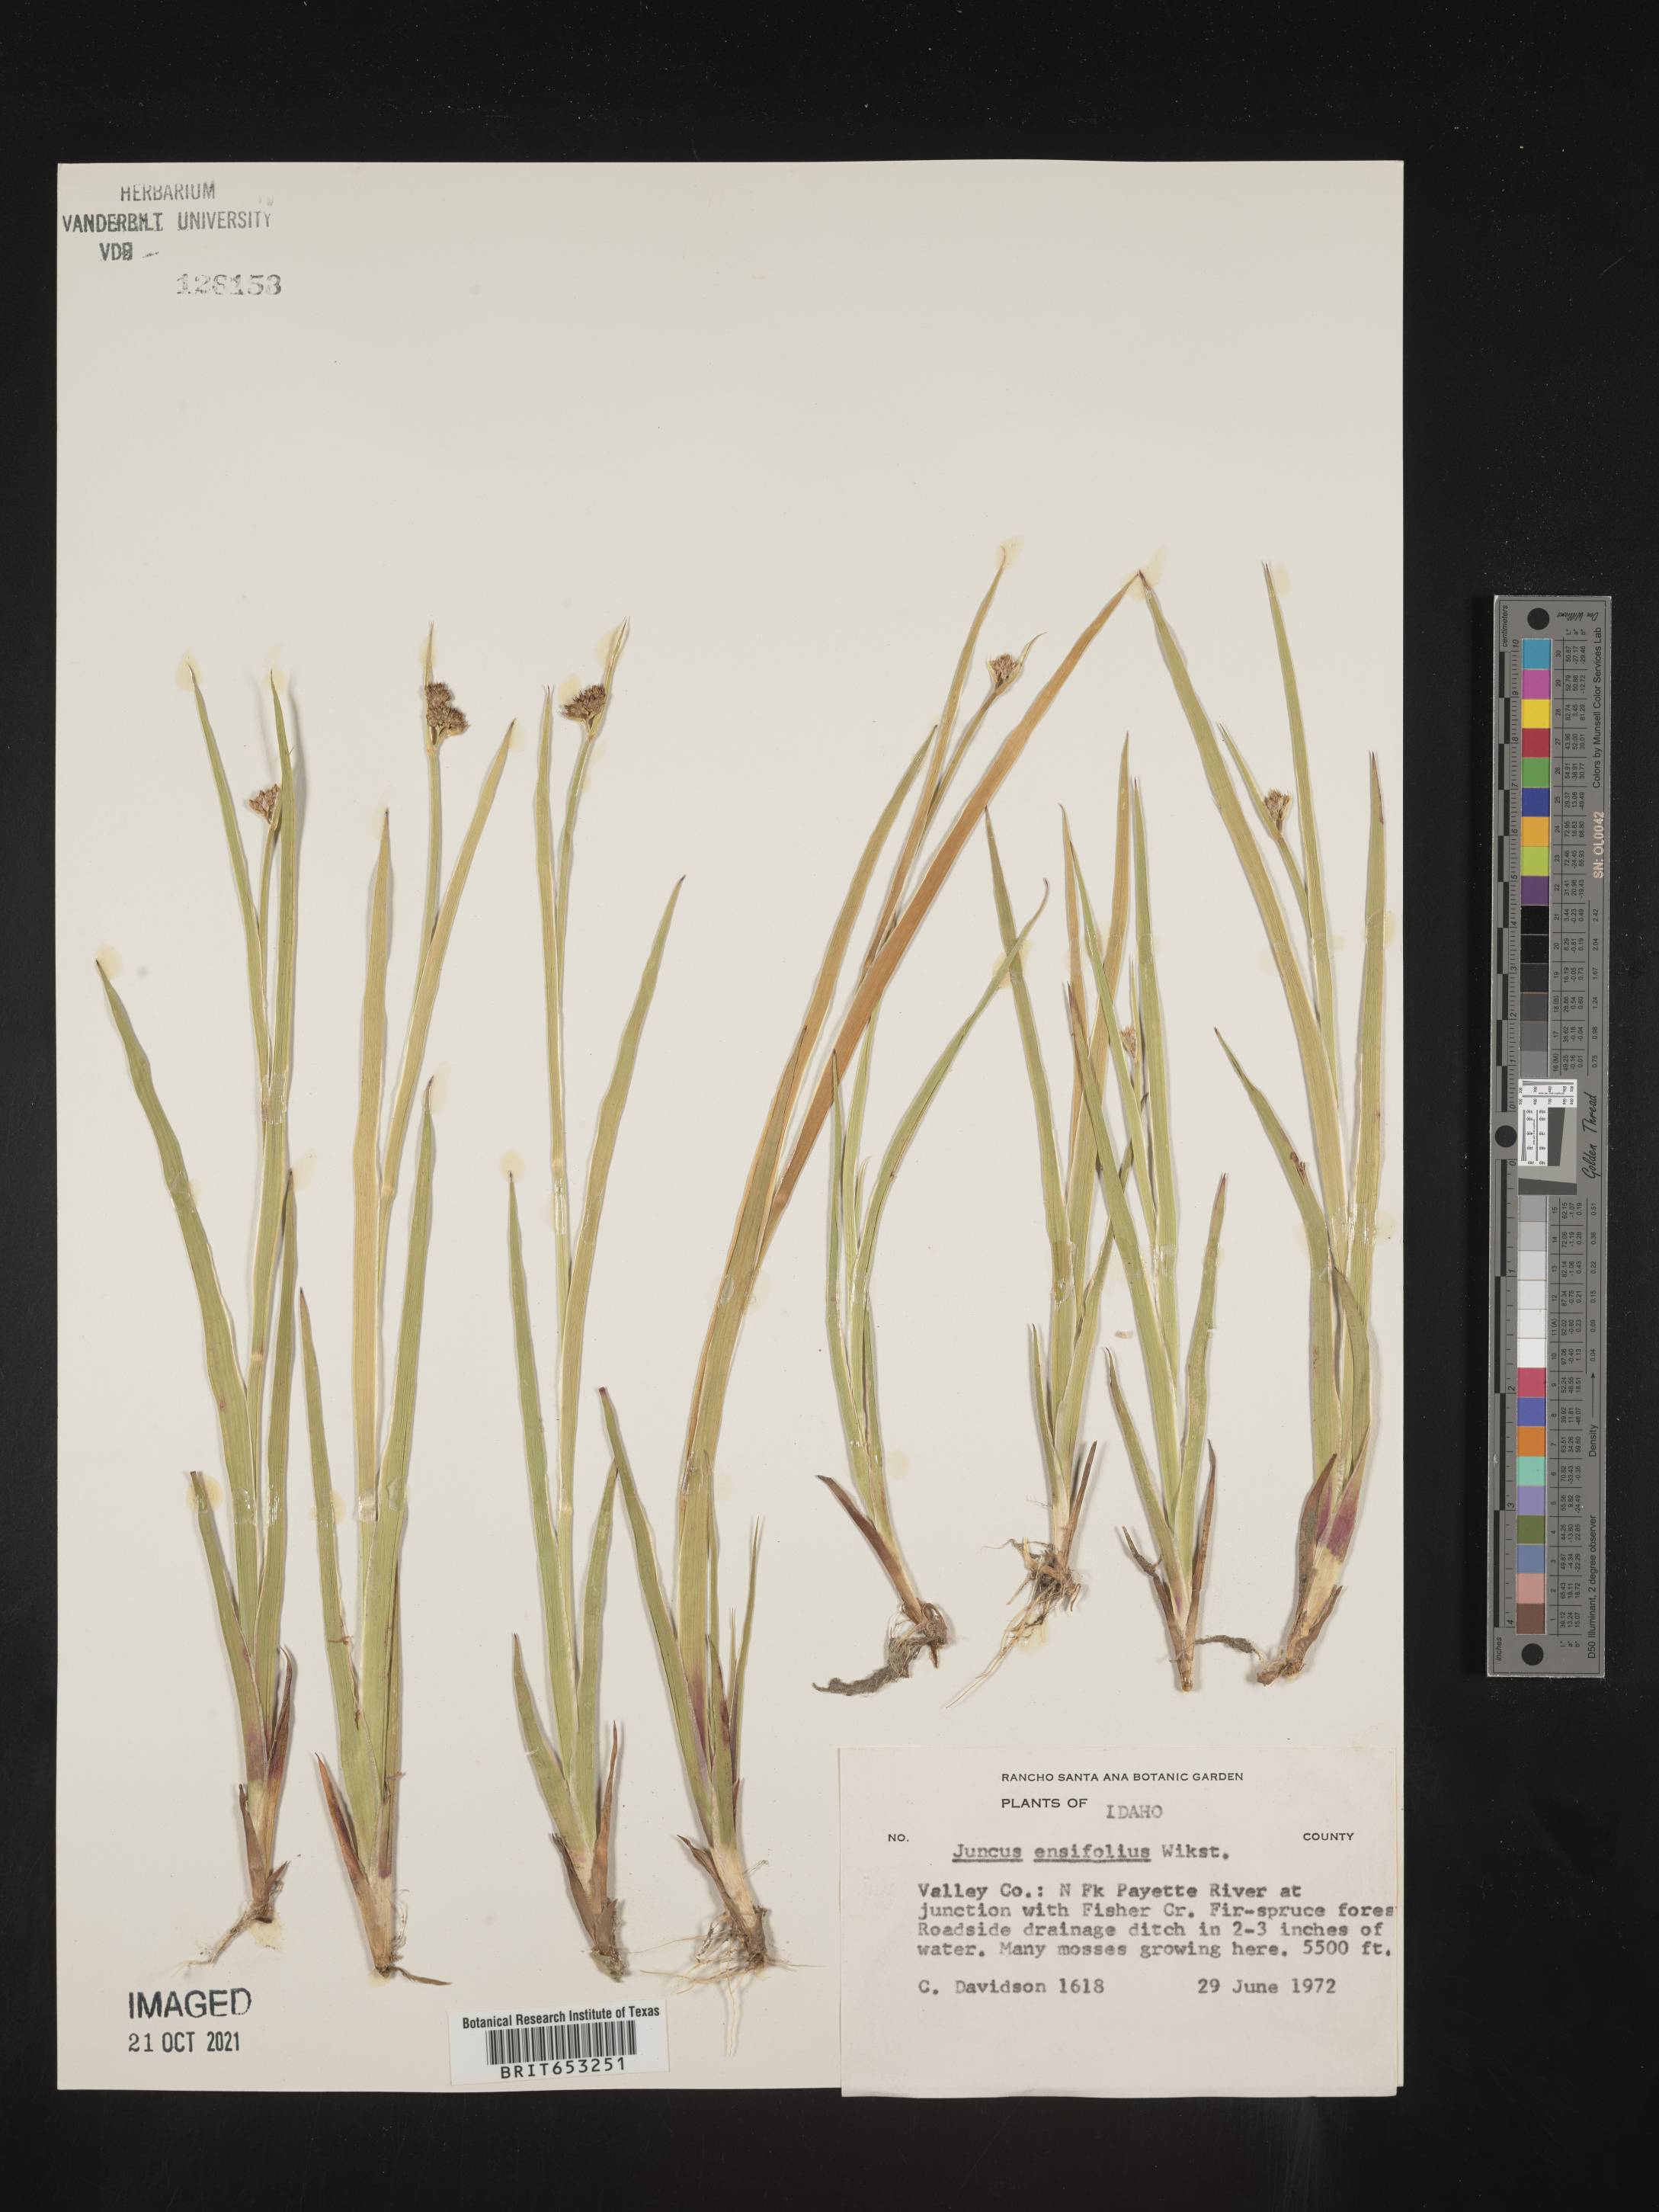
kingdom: Plantae
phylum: Tracheophyta
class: Liliopsida
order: Poales
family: Juncaceae
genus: Juncus
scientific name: Juncus ensifolius
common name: Sword-leaved rush
